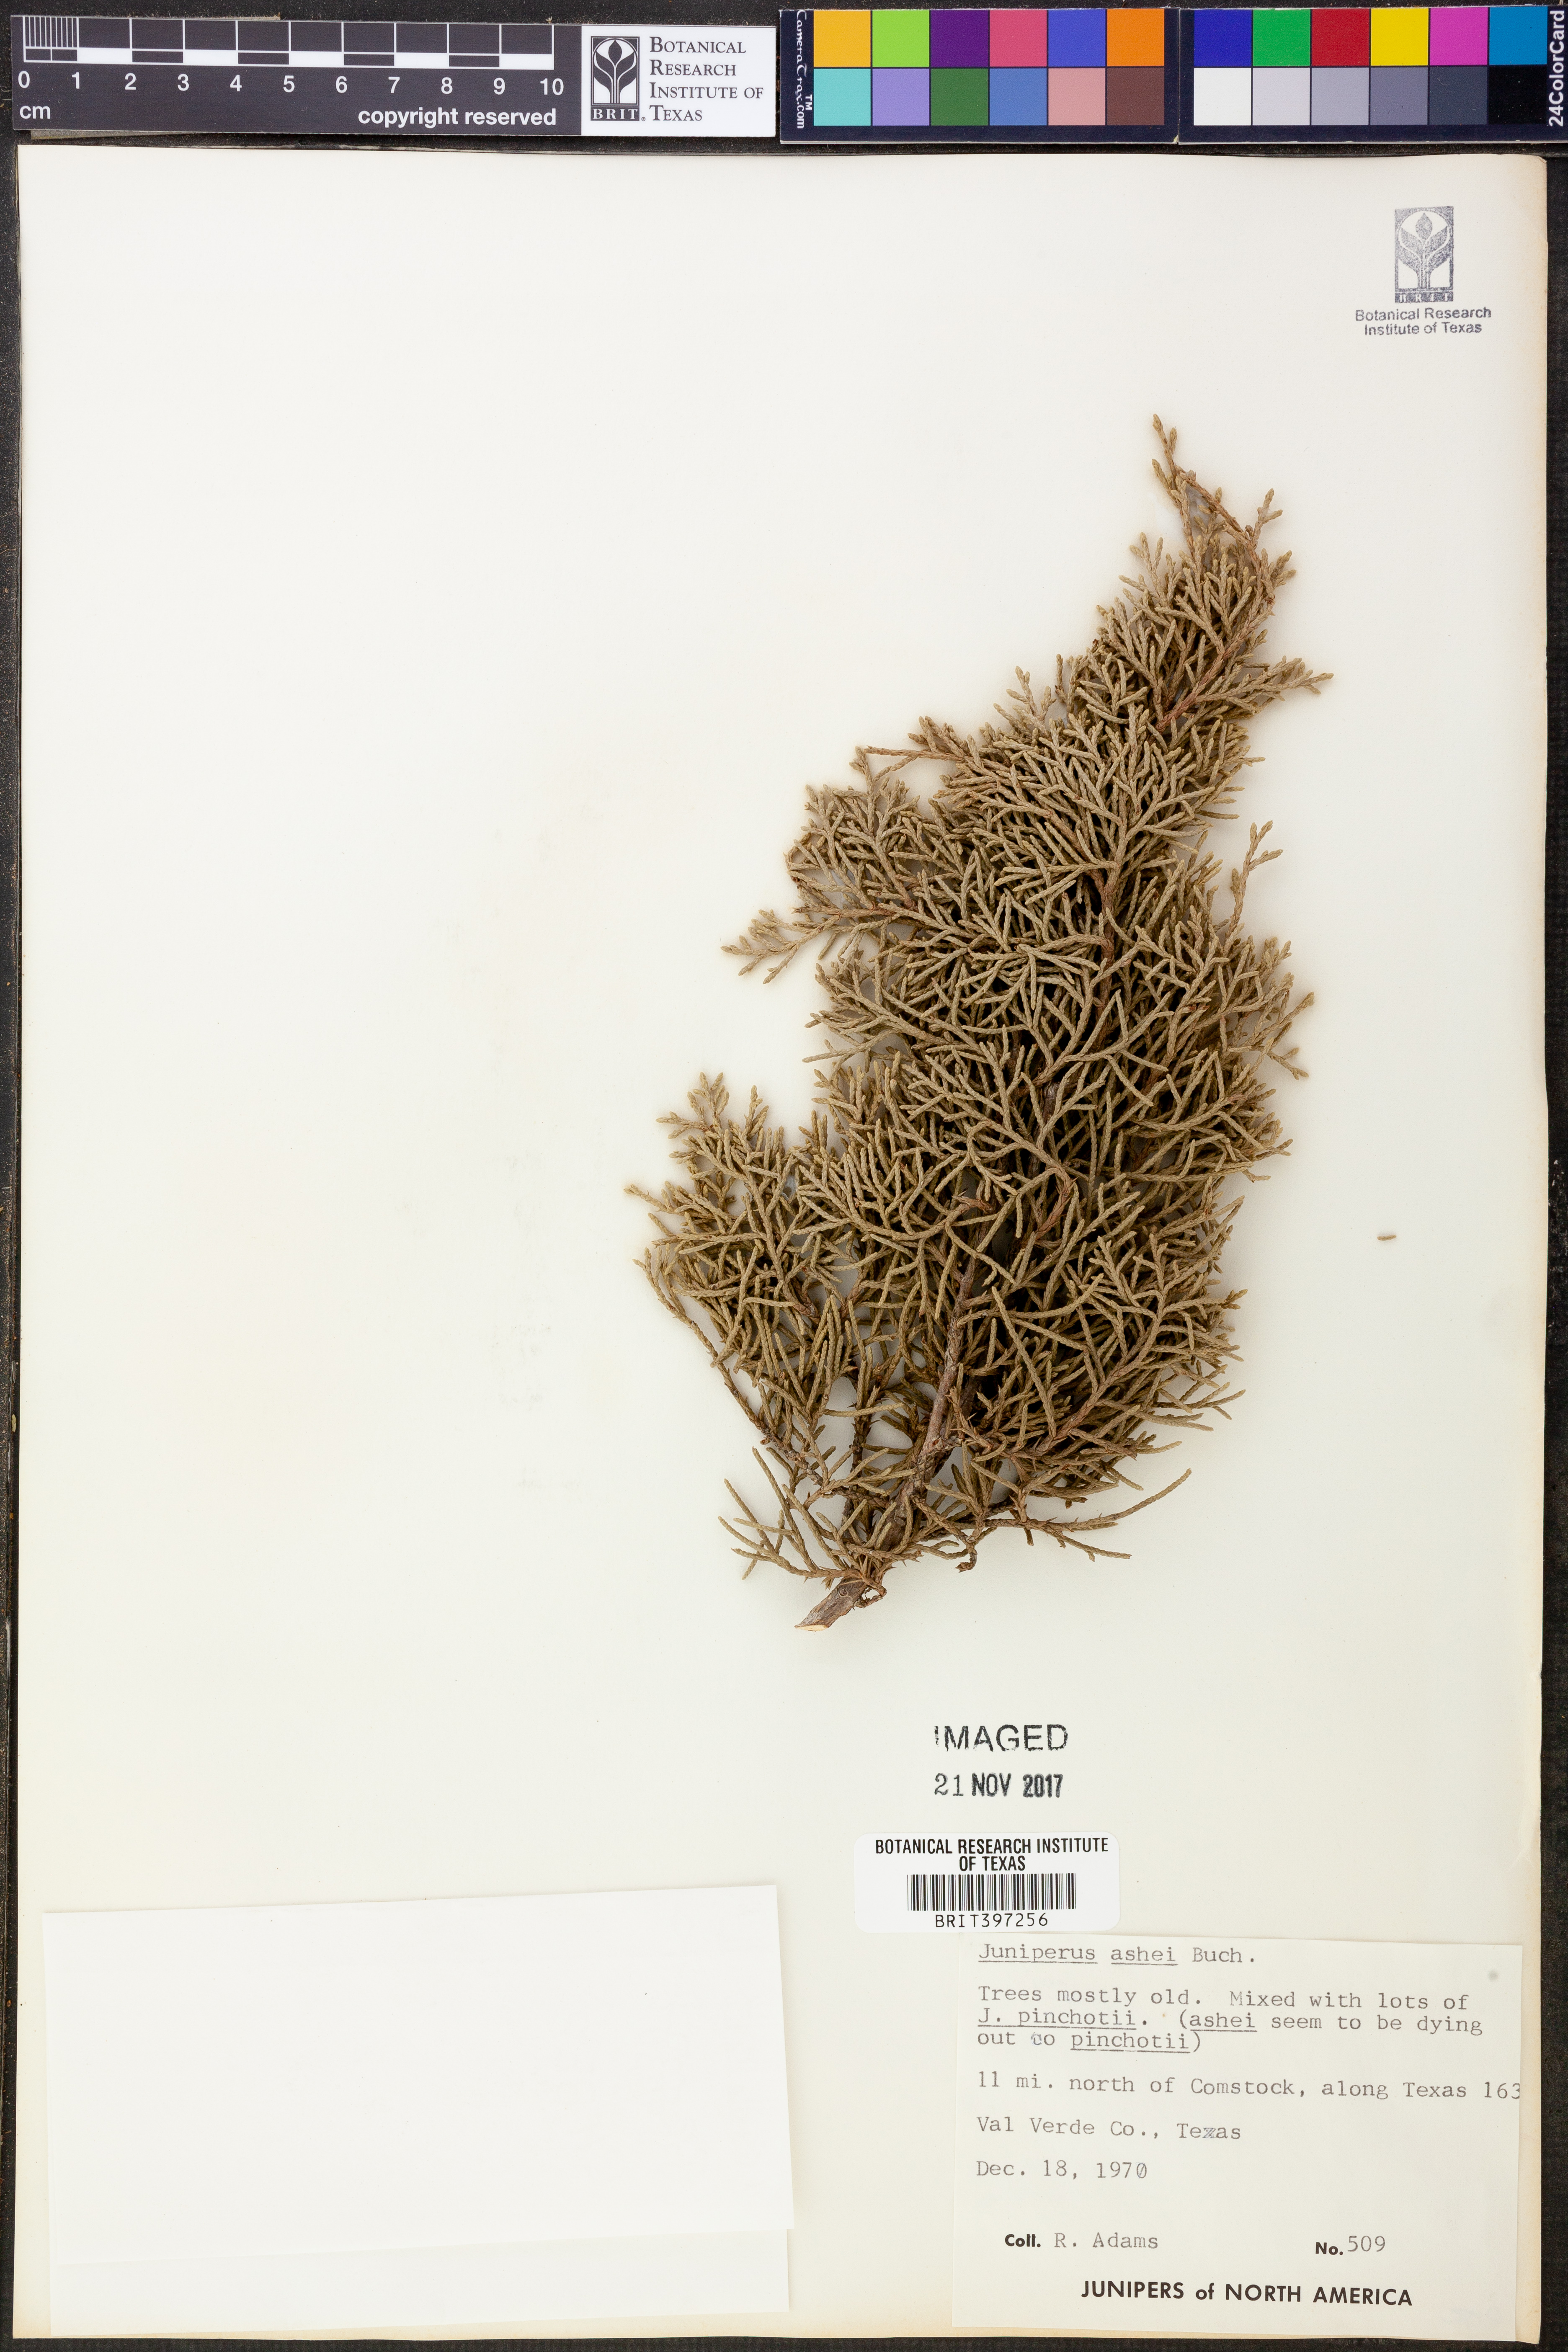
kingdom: Plantae
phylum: Tracheophyta
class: Pinopsida
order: Pinales
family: Cupressaceae
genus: Juniperus
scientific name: Juniperus ashei
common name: Mexican juniper
